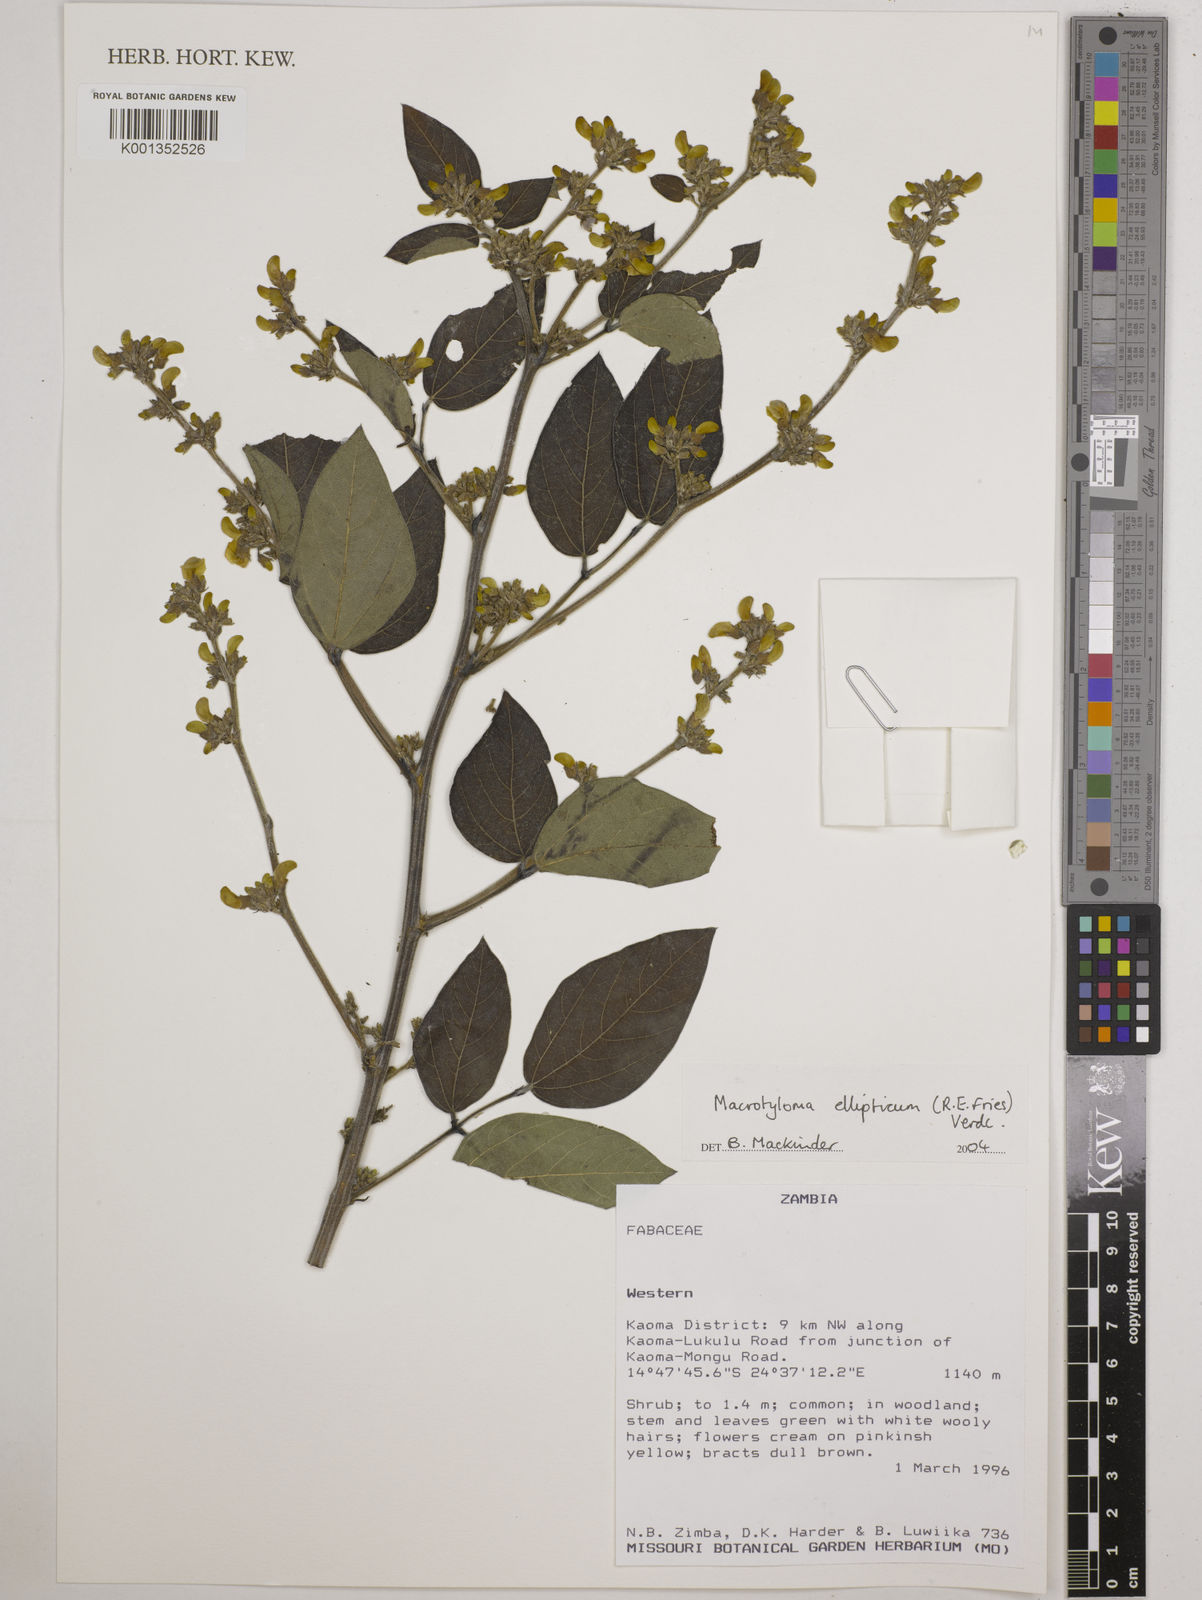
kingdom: Plantae
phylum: Tracheophyta
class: Magnoliopsida
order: Fabales
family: Fabaceae
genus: Macrotyloma
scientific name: Macrotyloma ellipticum
